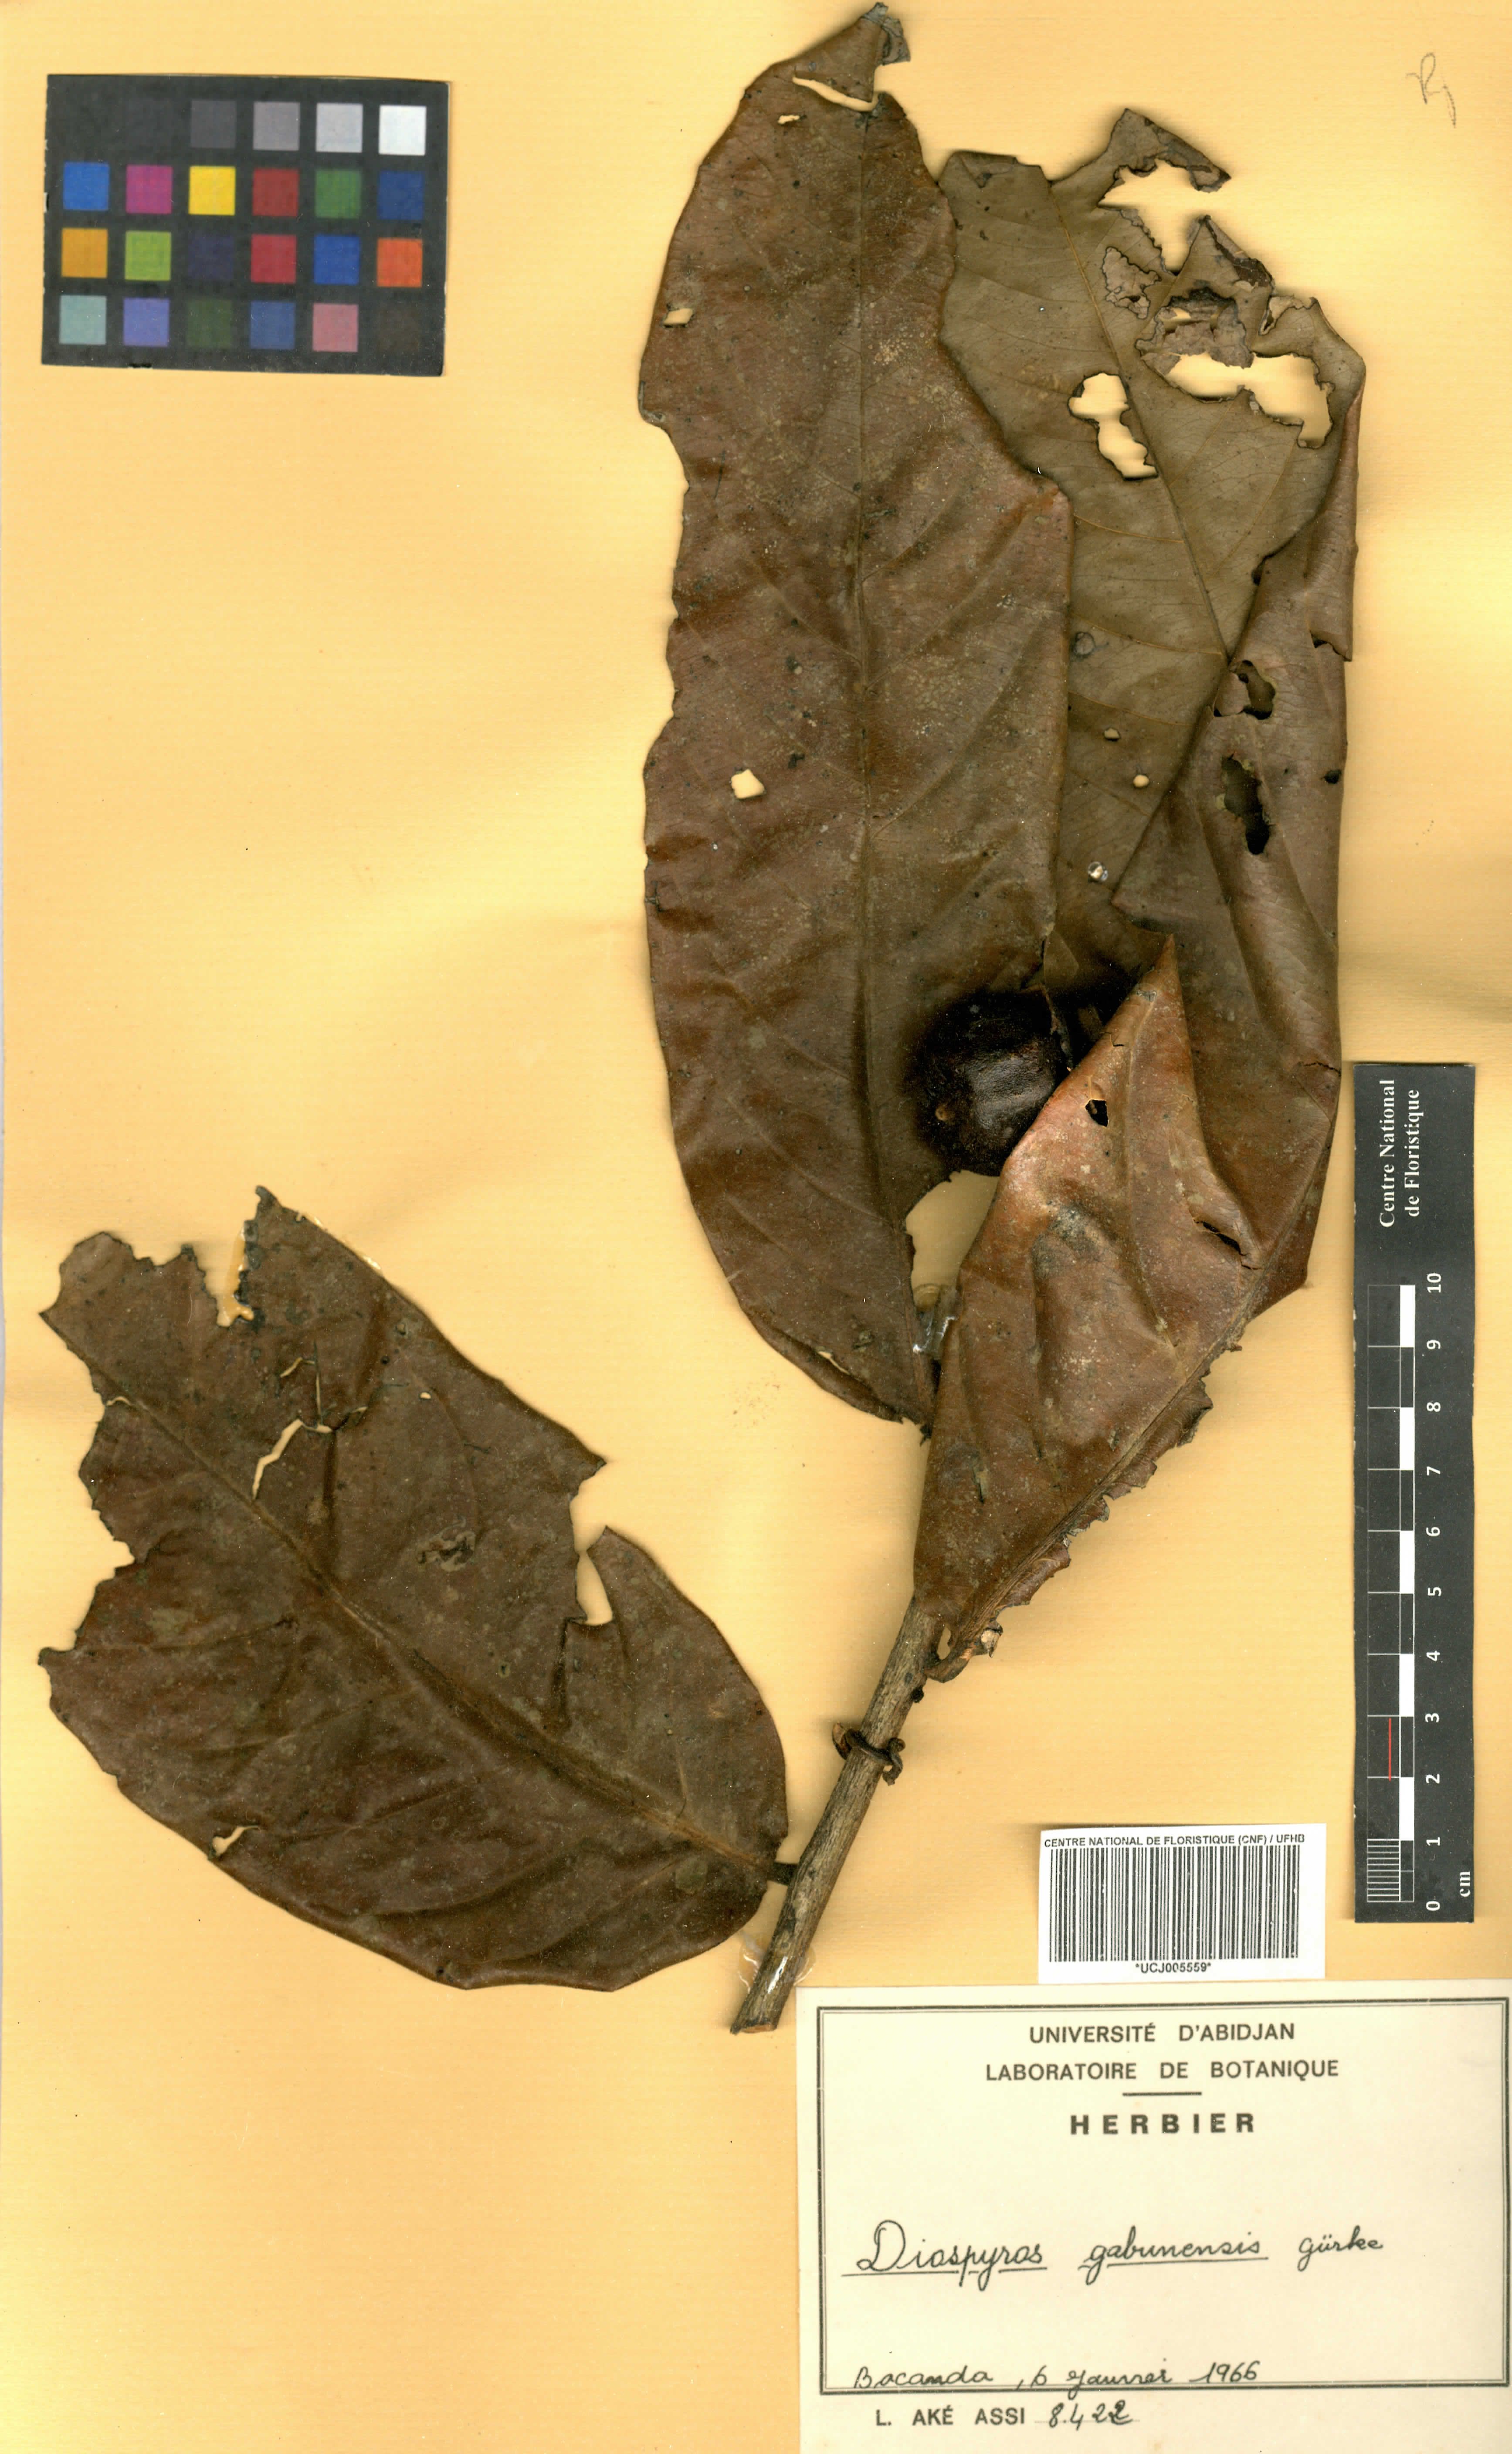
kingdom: Plantae
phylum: Tracheophyta
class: Magnoliopsida
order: Ericales
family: Ebenaceae
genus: Diospyros
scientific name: Diospyros gabunensis
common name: Flint bark tree
